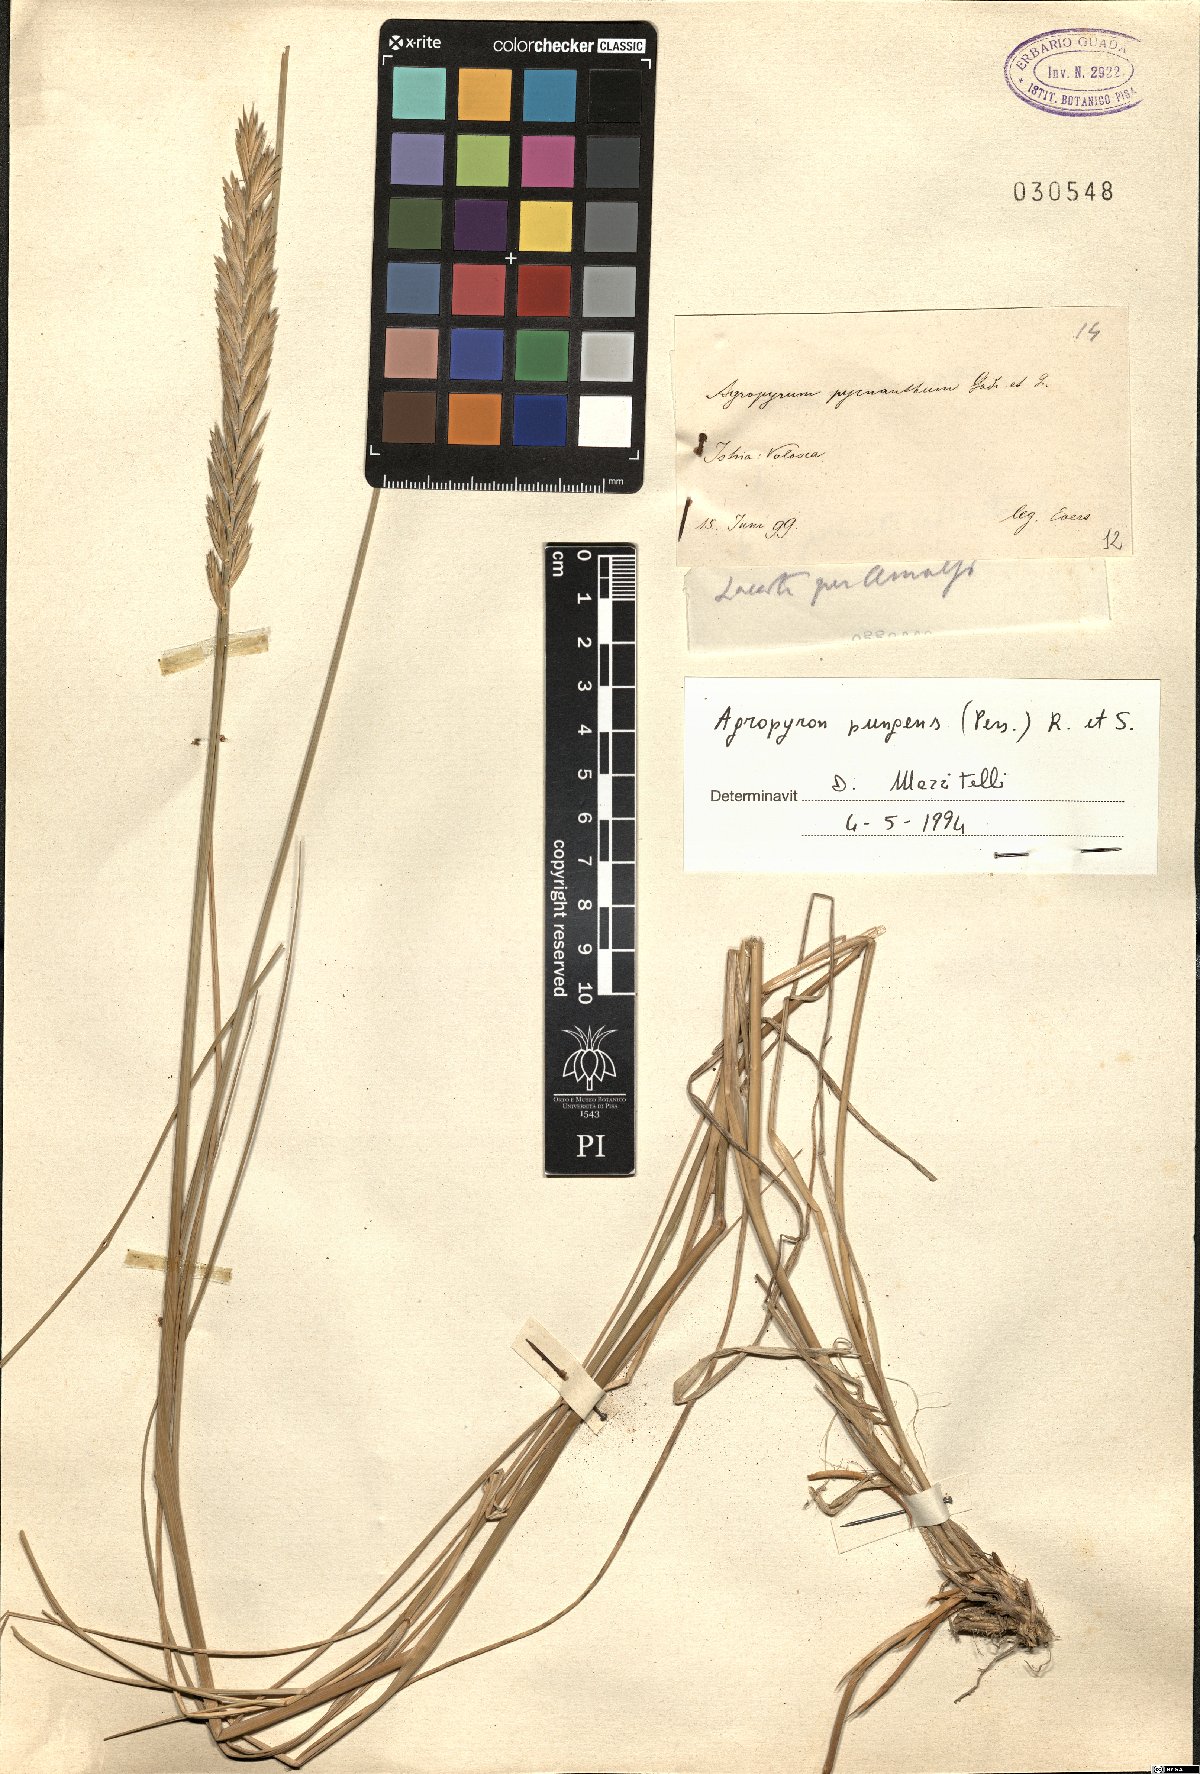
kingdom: Plantae
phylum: Tracheophyta
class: Liliopsida
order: Poales
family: Poaceae
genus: Elymus
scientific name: Elymus pungens
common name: Sea couch
